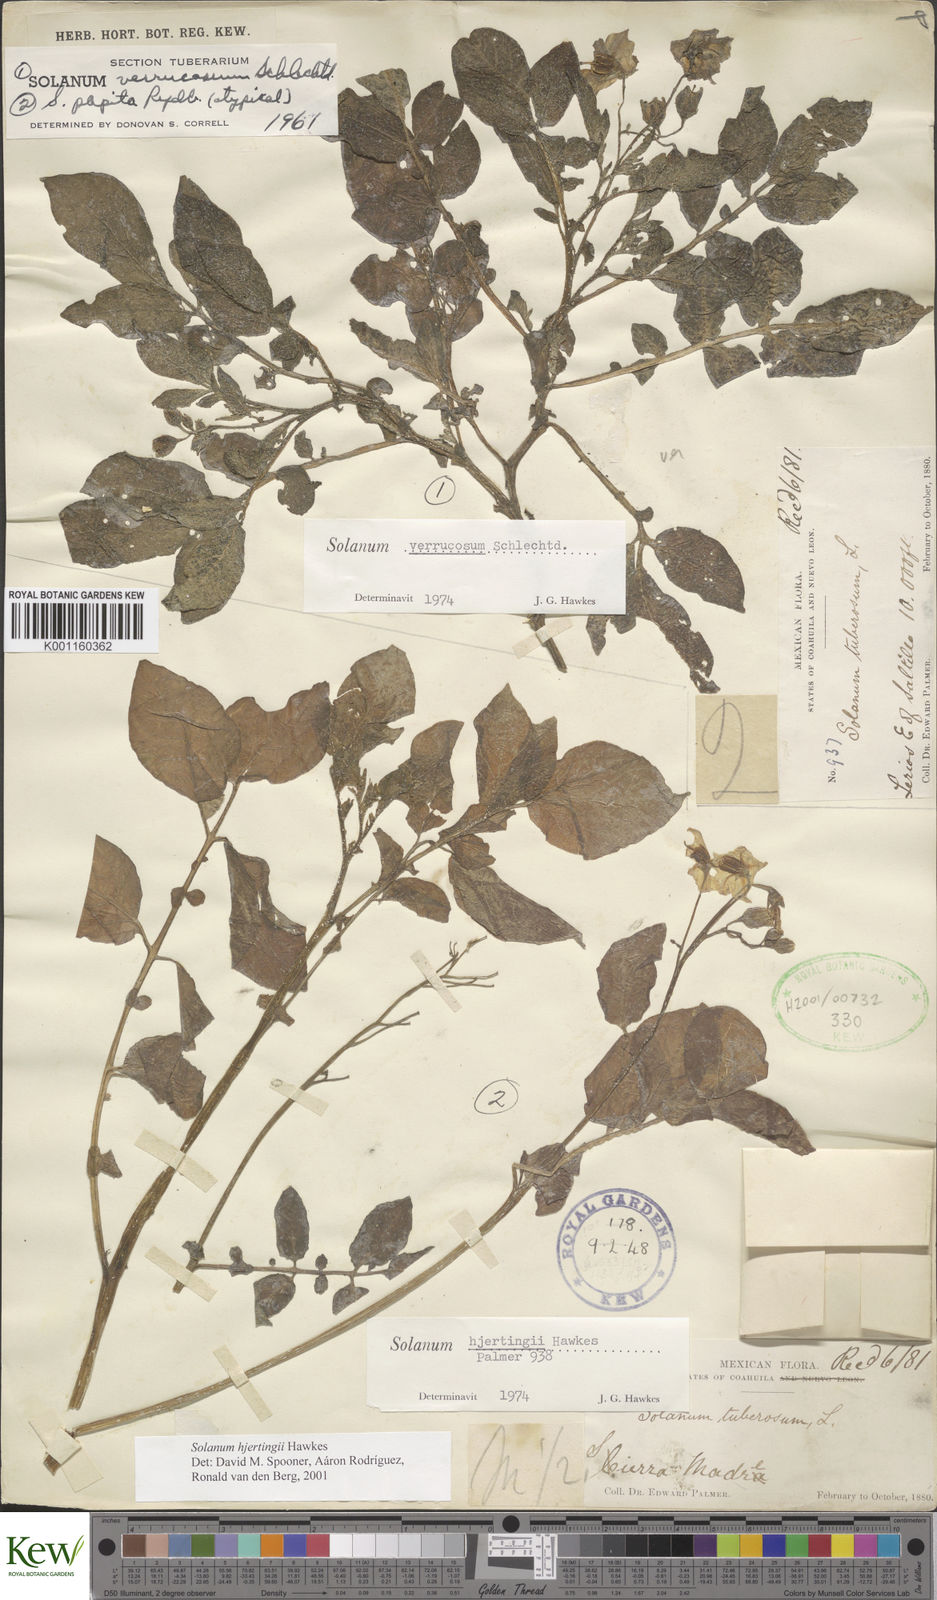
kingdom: Plantae
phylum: Tracheophyta
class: Magnoliopsida
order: Solanales
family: Solanaceae
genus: Solanum
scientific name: Solanum hjertingii
